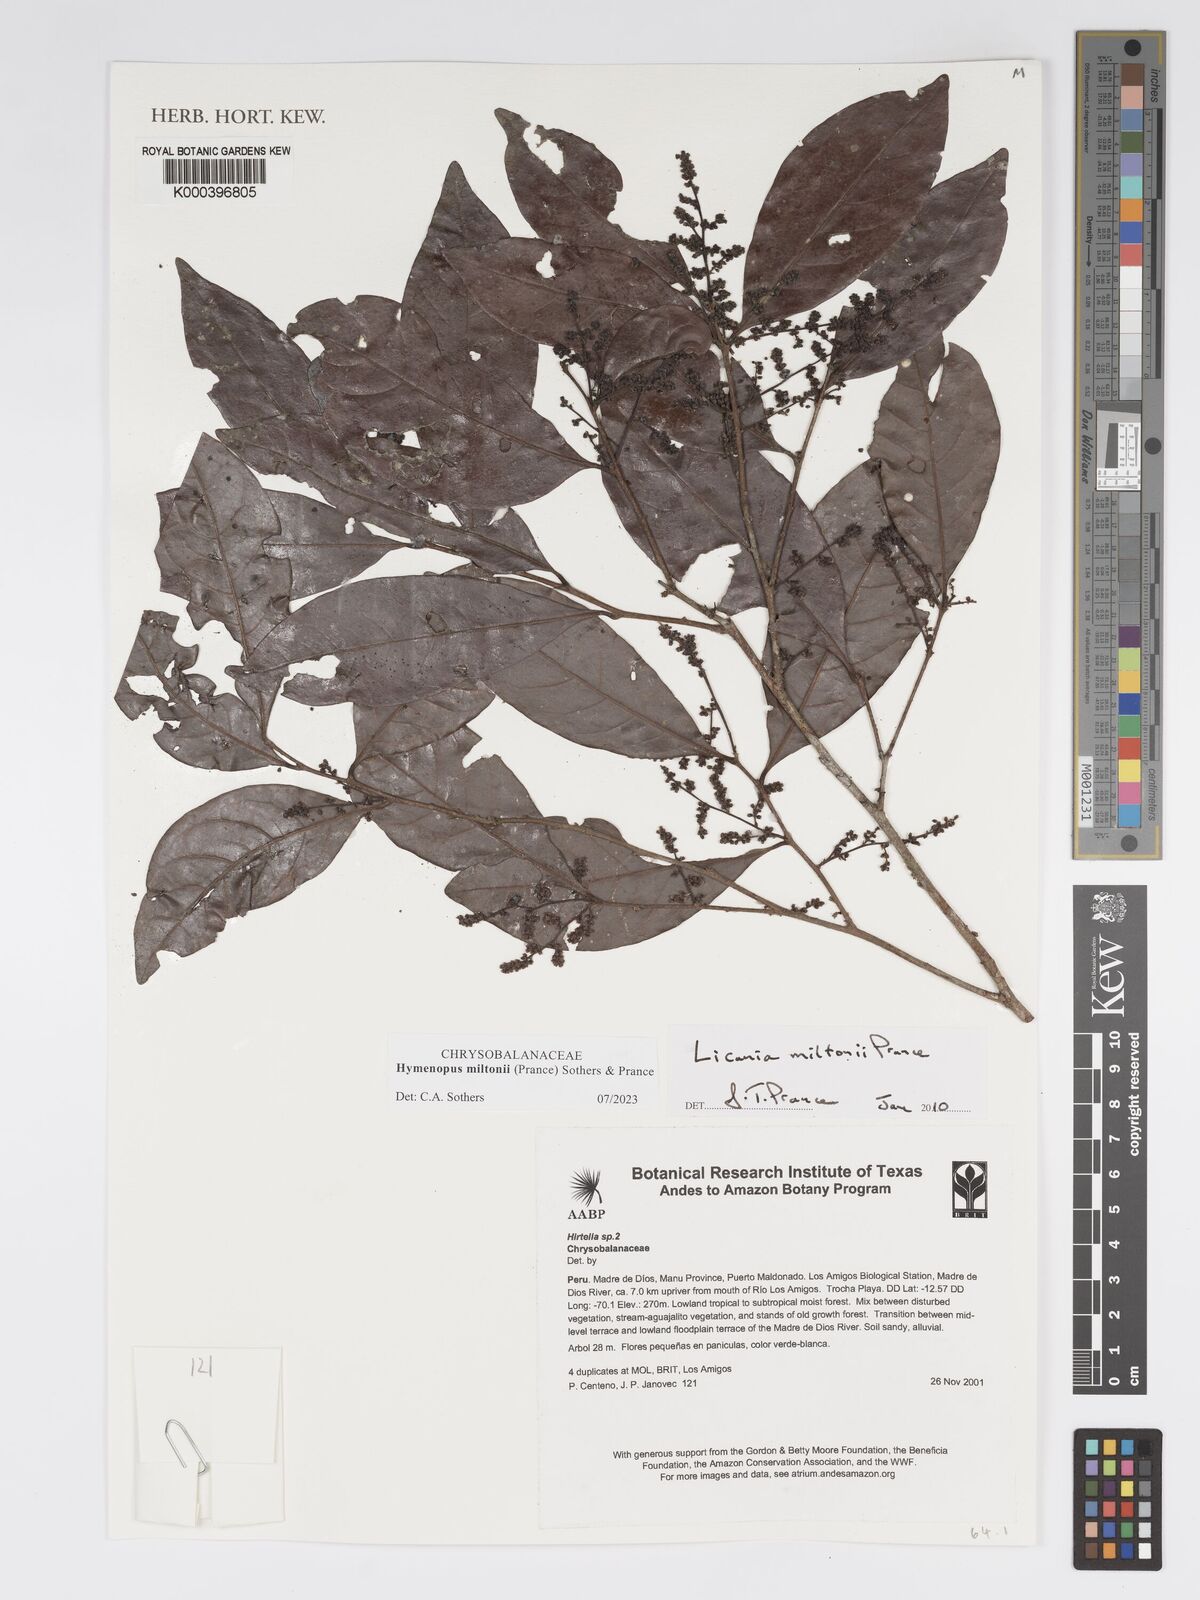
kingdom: Plantae
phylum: Tracheophyta
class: Magnoliopsida
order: Malpighiales
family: Chrysobalanaceae
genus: Hymenopus
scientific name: Hymenopus miltonii
